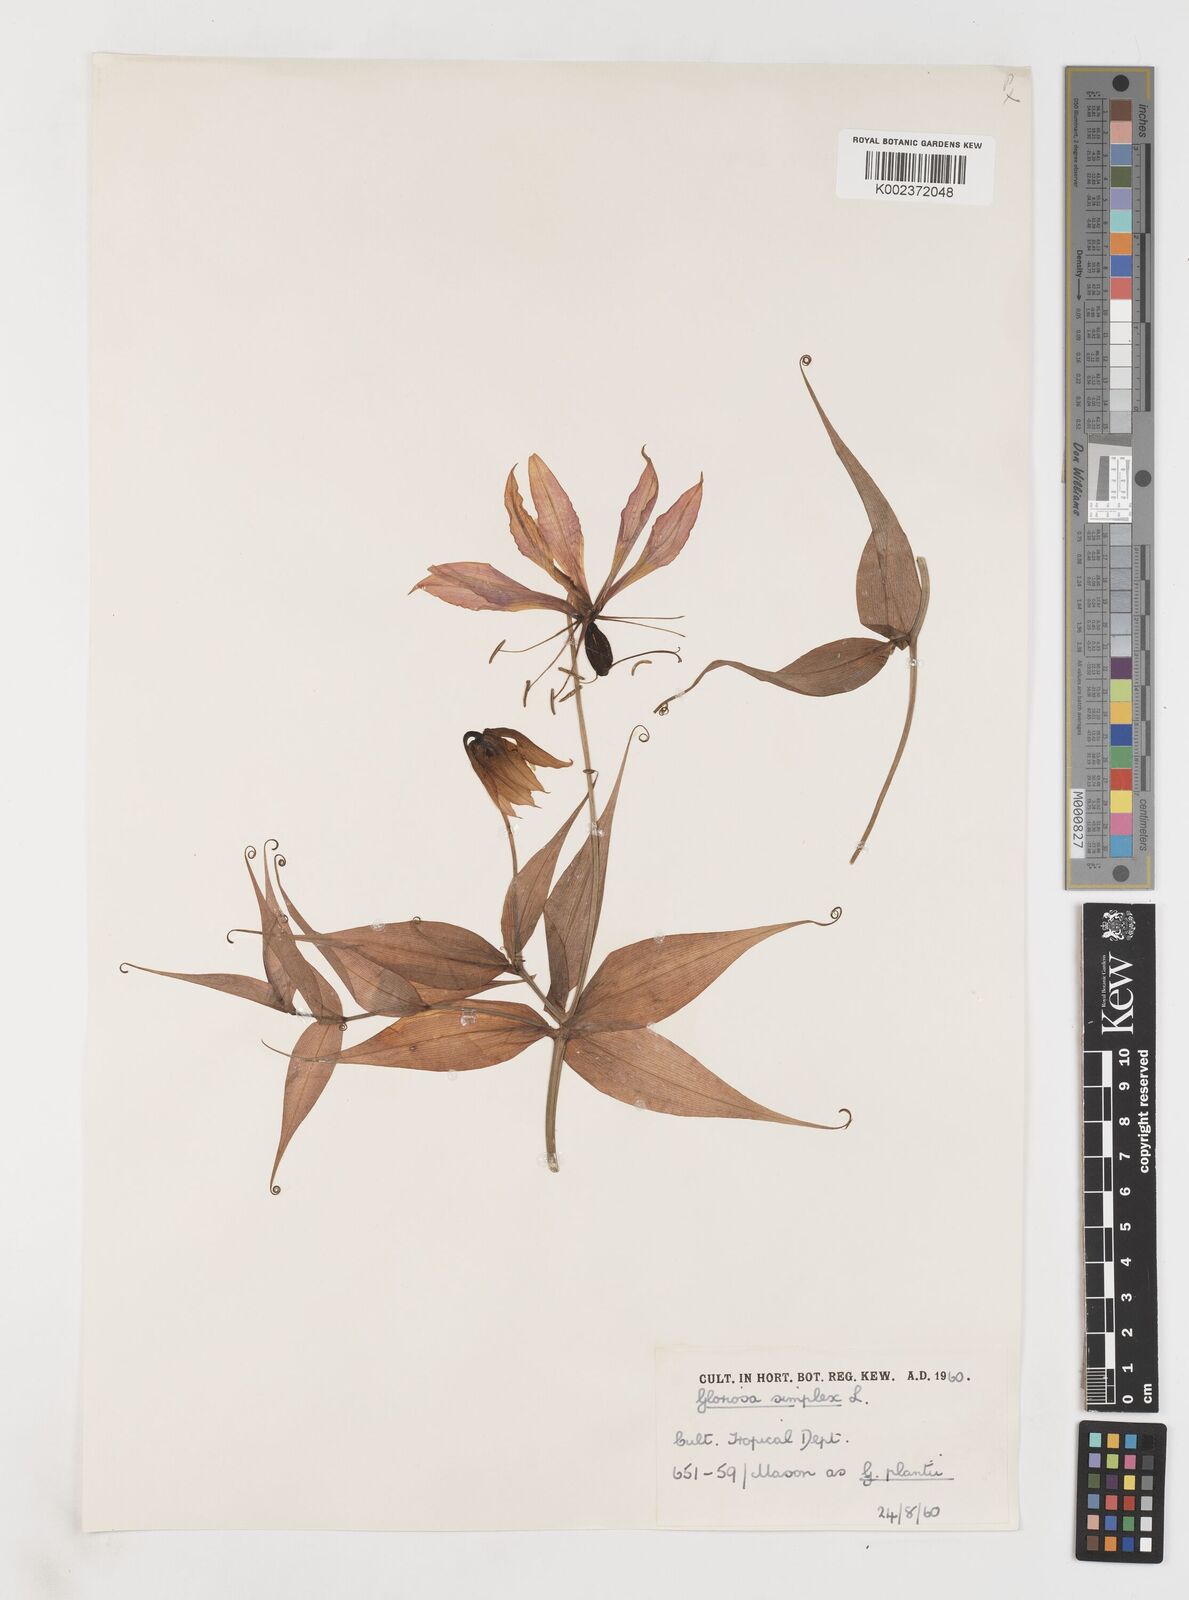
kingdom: Plantae
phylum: Tracheophyta
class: Liliopsida
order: Liliales
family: Colchicaceae
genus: Gloriosa
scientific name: Gloriosa simplex
